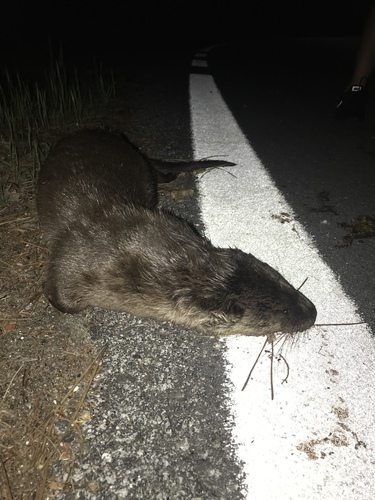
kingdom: Animalia
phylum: Chordata
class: Mammalia
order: Carnivora
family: Mustelidae
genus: Lutra
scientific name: Lutra lutra
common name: European otter
